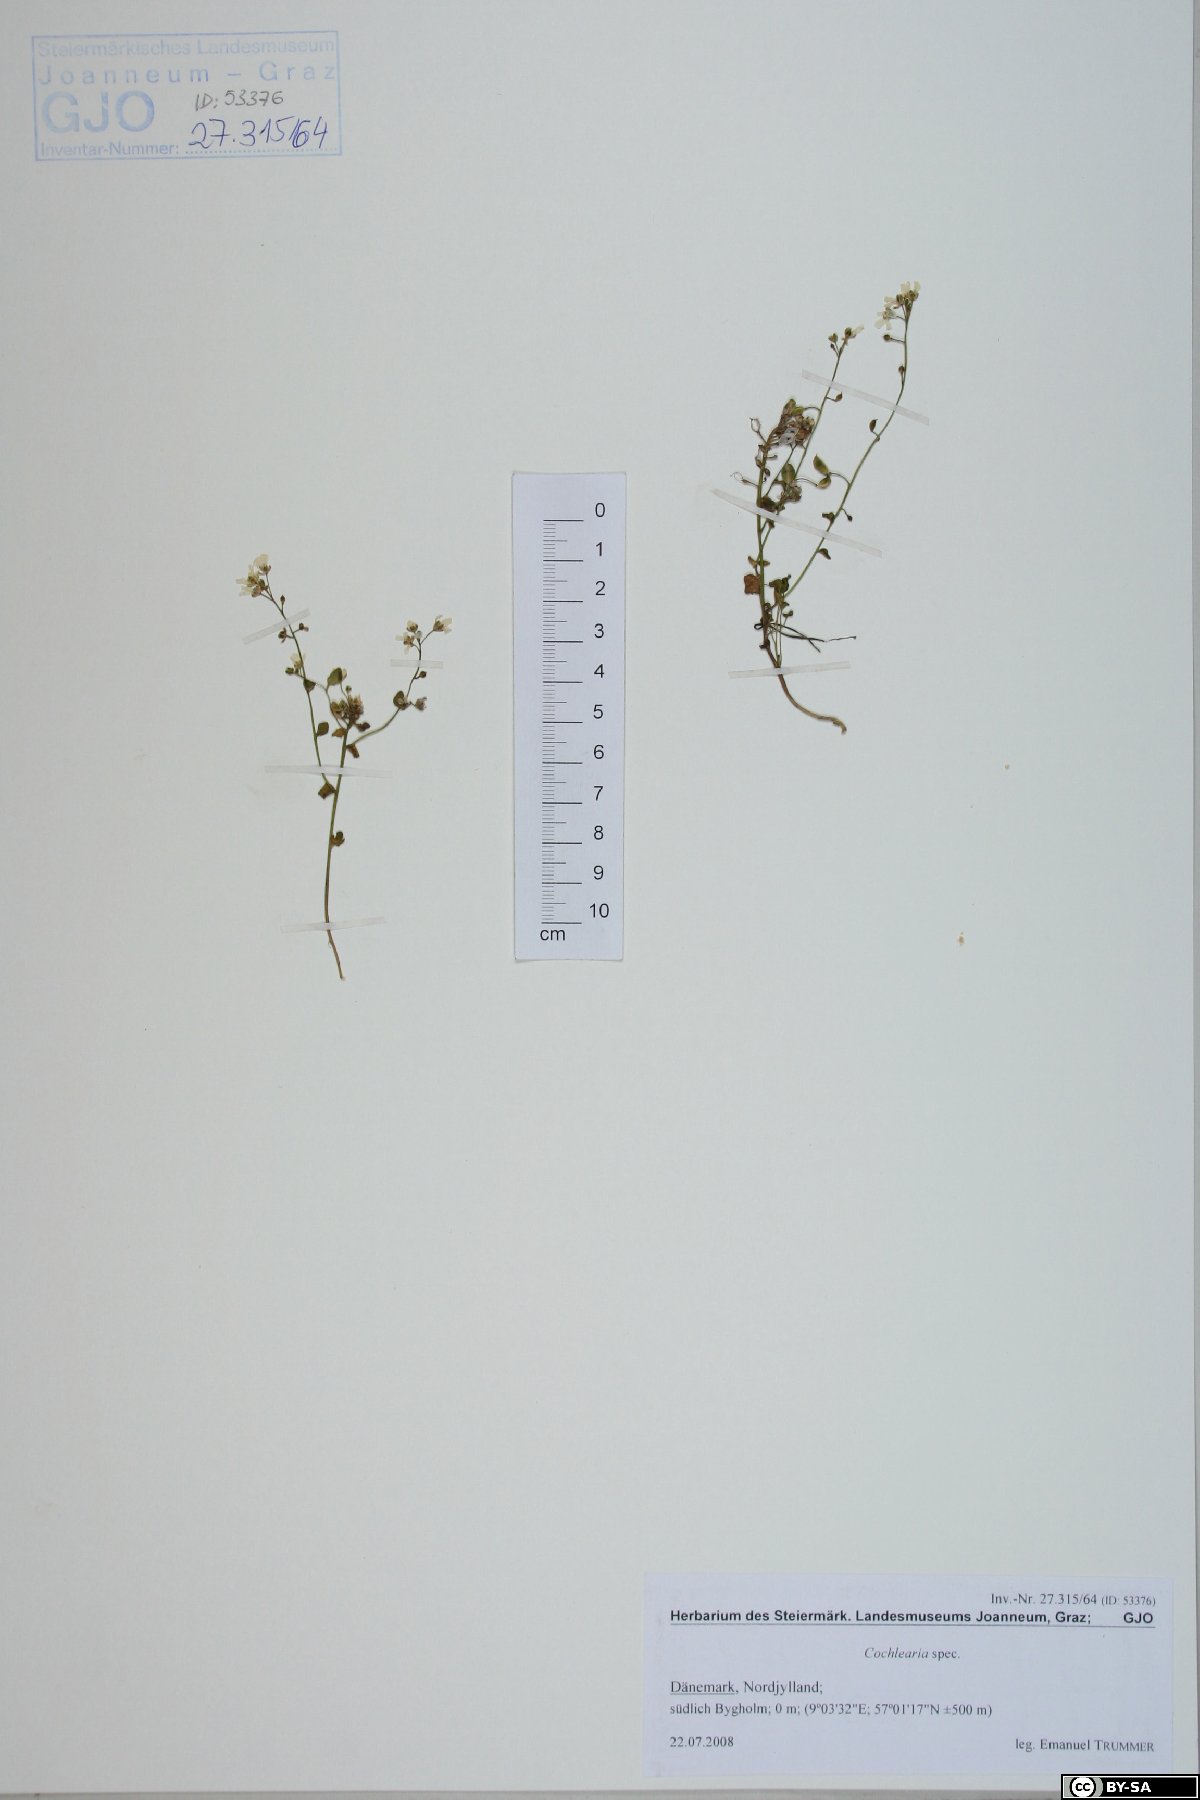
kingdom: Plantae
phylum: Tracheophyta
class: Magnoliopsida
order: Brassicales
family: Brassicaceae
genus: Cochlearia
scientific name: Cochlearia
